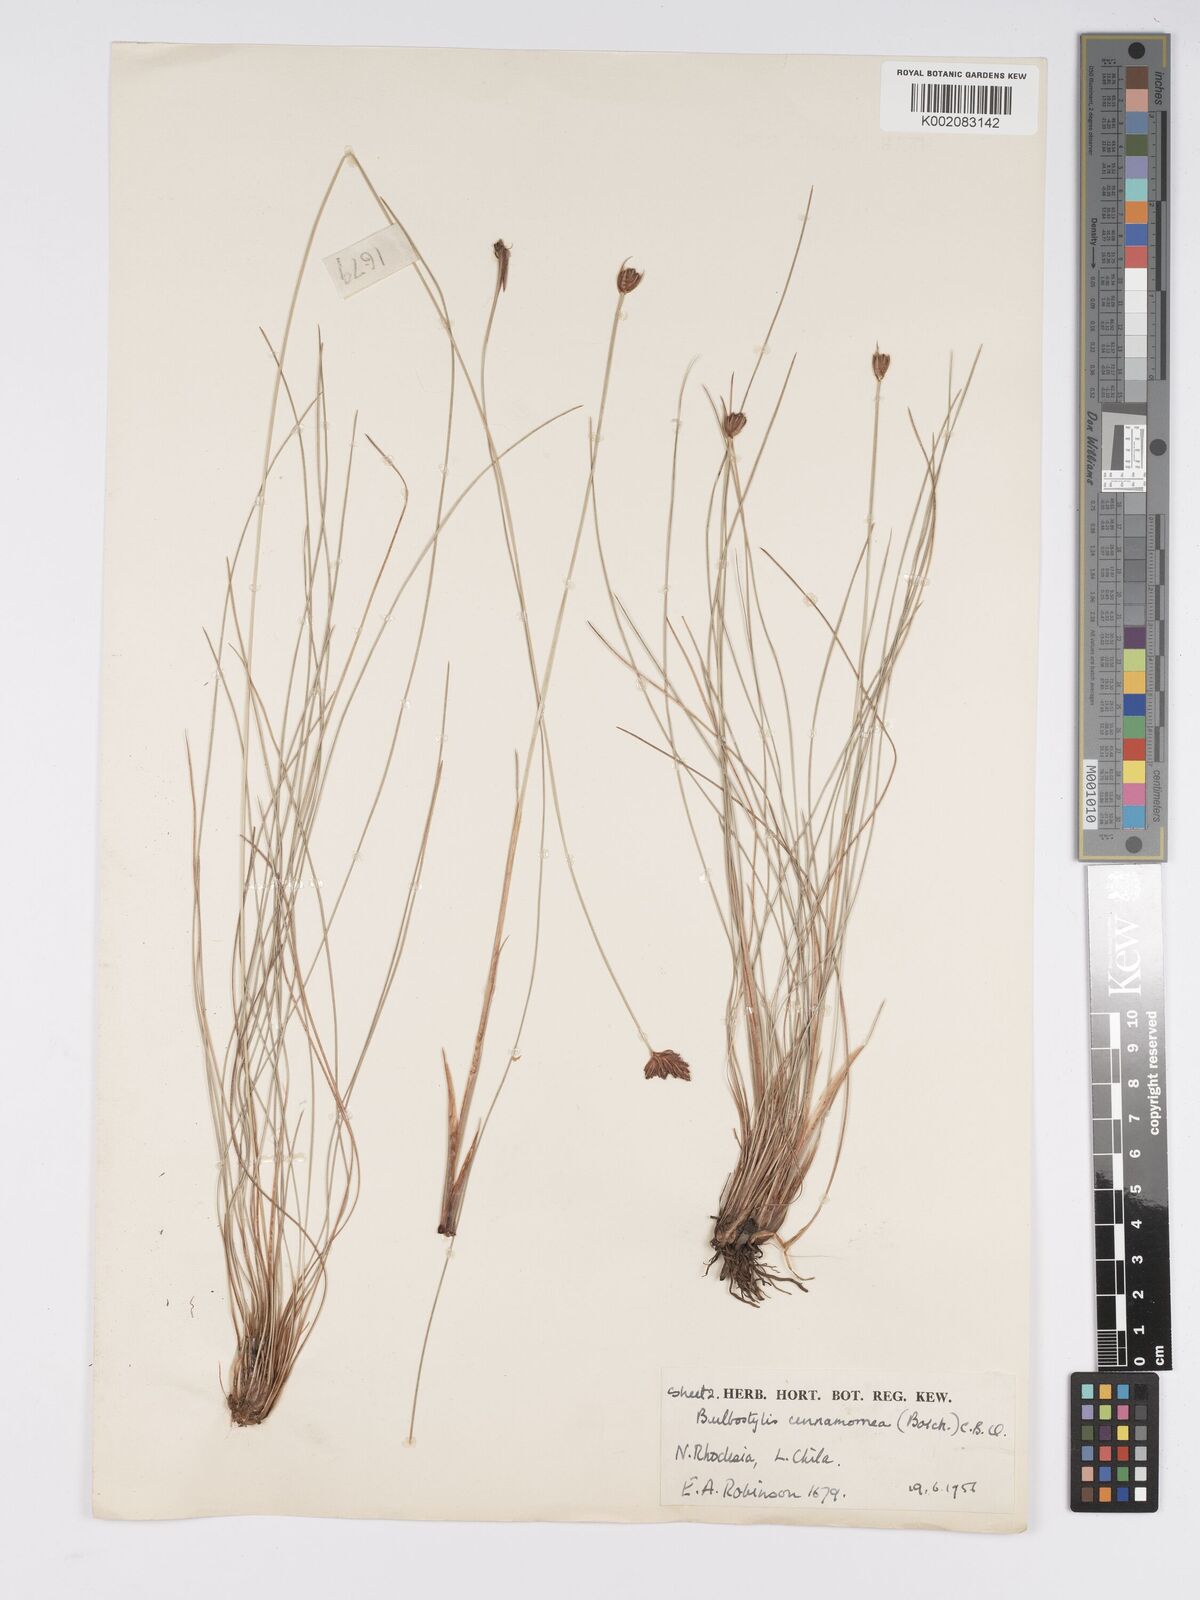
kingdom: Plantae
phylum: Tracheophyta
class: Liliopsida
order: Poales
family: Cyperaceae
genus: Bulbostylis
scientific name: Bulbostylis schoenoides
